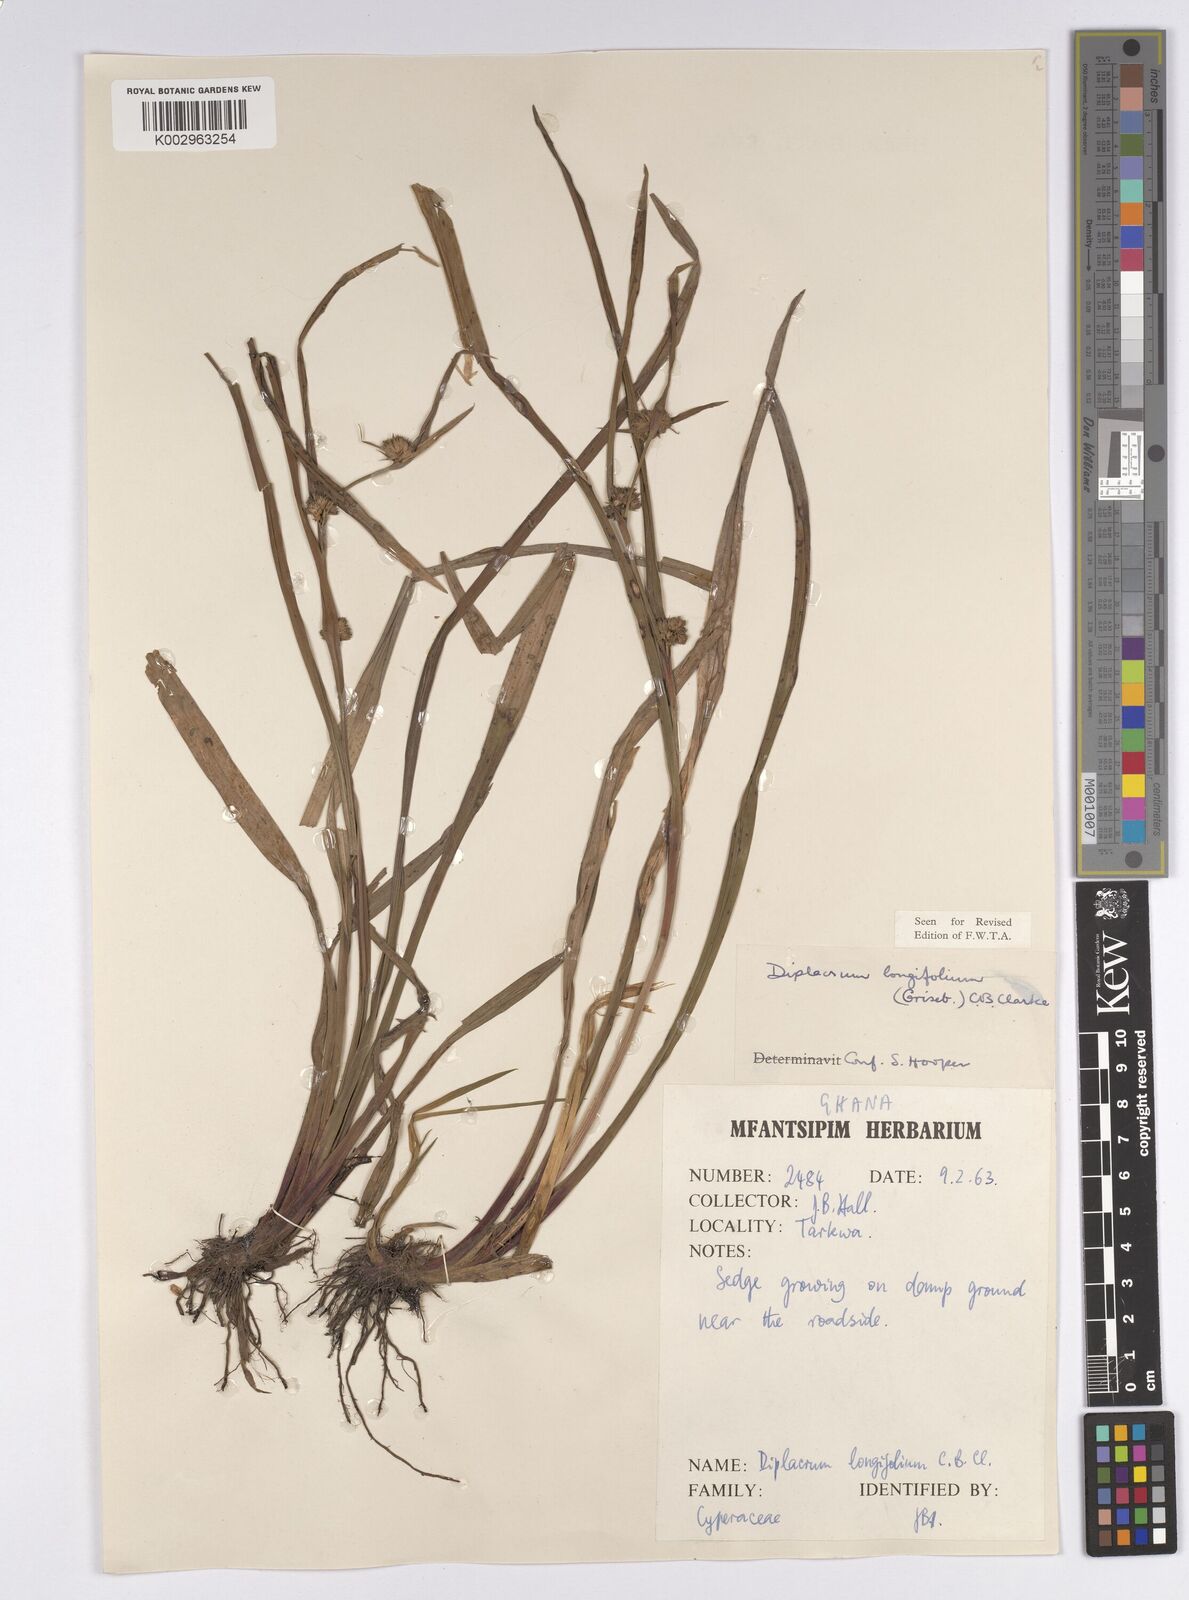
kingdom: Plantae
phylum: Tracheophyta
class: Liliopsida
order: Poales
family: Cyperaceae
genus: Diplacrum
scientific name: Diplacrum capitatum
